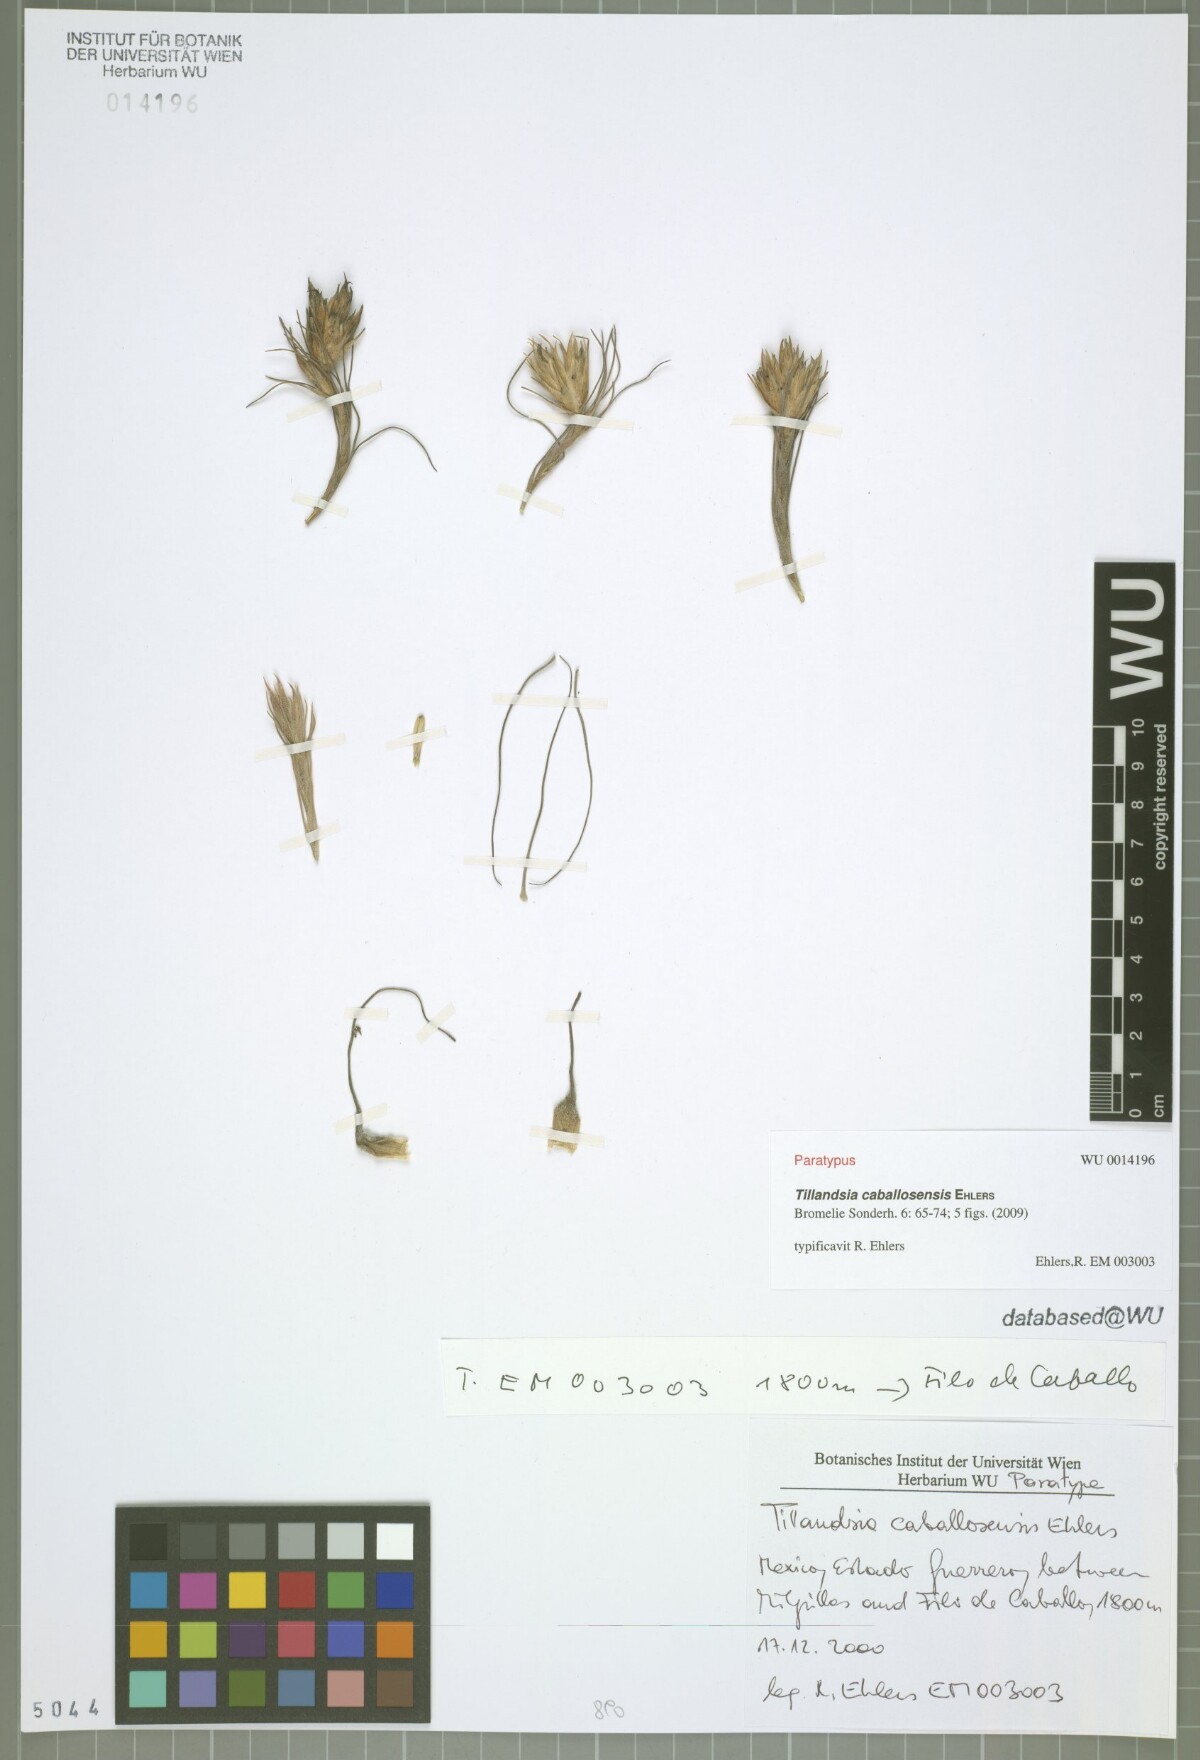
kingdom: Plantae
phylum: Tracheophyta
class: Liliopsida
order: Poales
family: Bromeliaceae
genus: Tillandsia
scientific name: Tillandsia caballosensis
